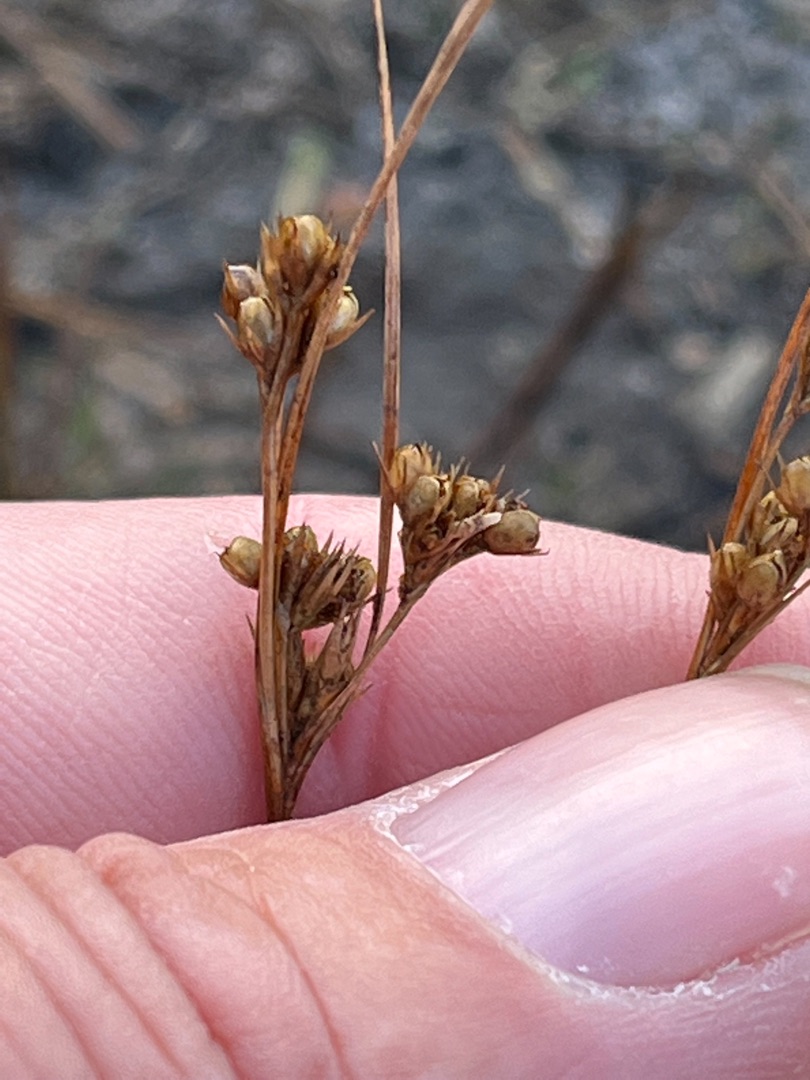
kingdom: Plantae
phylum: Tracheophyta
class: Liliopsida
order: Poales
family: Juncaceae
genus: Juncus
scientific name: Juncus tenuis
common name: Tue-siv
